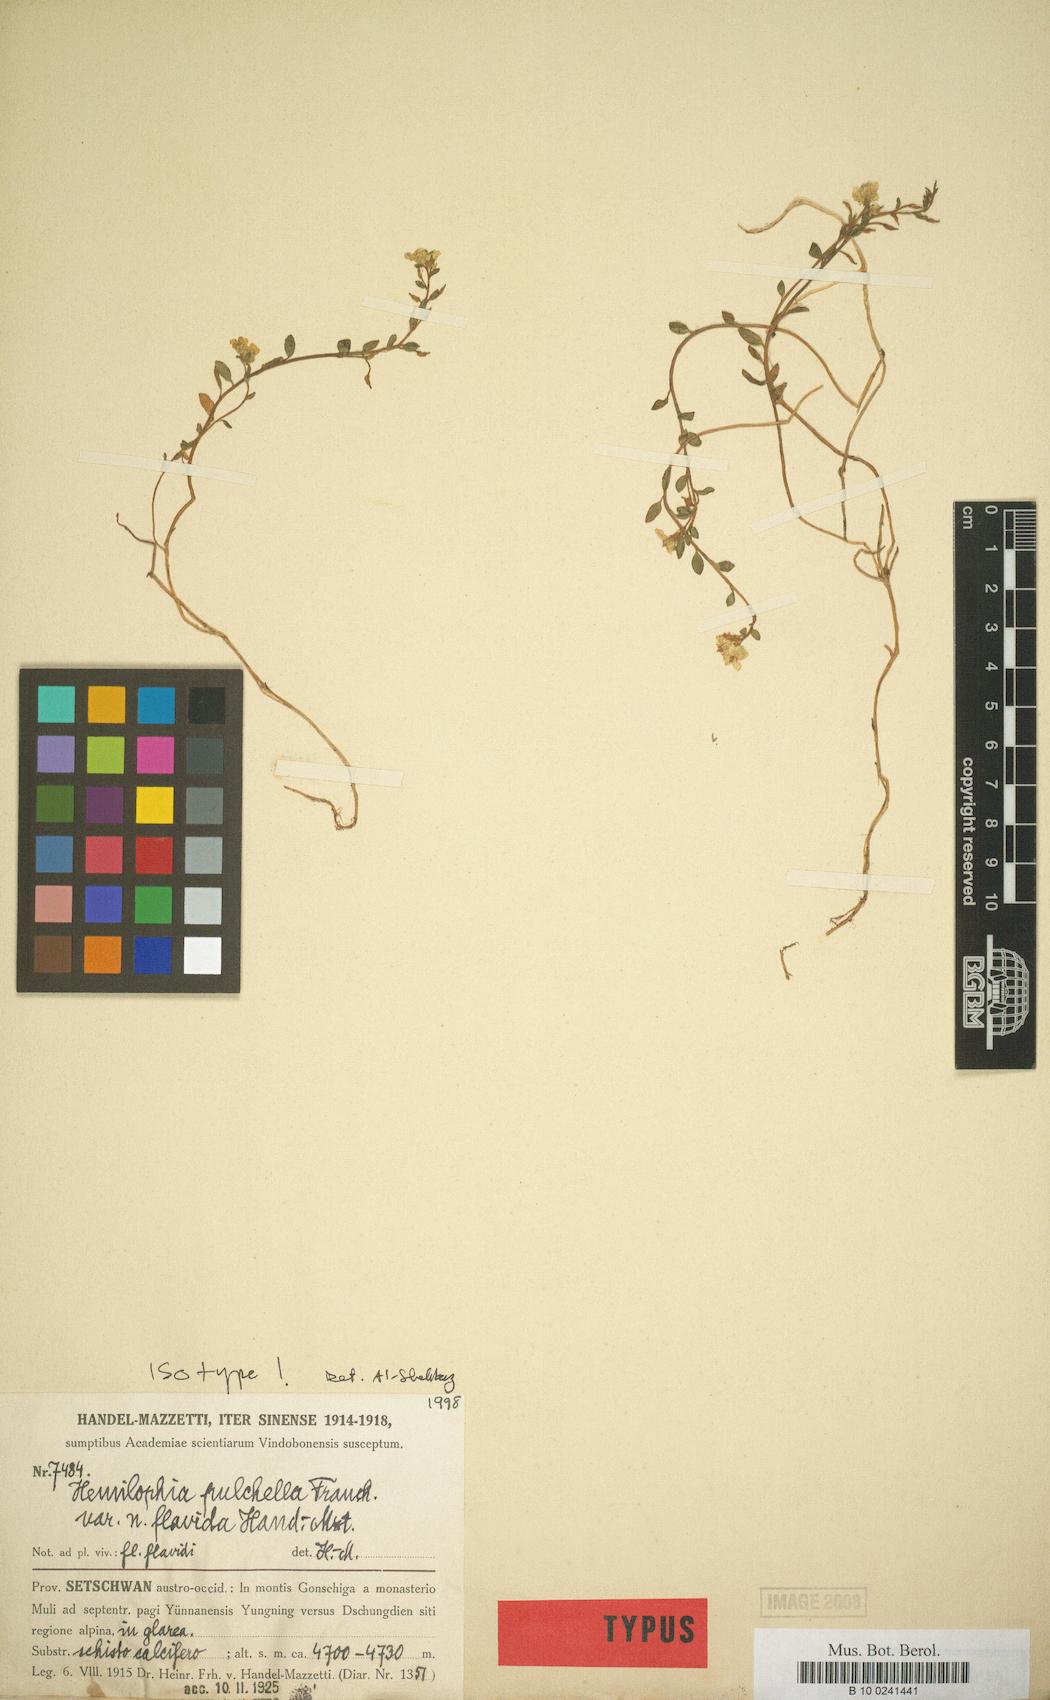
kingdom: Plantae
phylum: Tracheophyta
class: Magnoliopsida
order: Brassicales
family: Brassicaceae
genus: Hemilophia
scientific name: Hemilophia rockii
